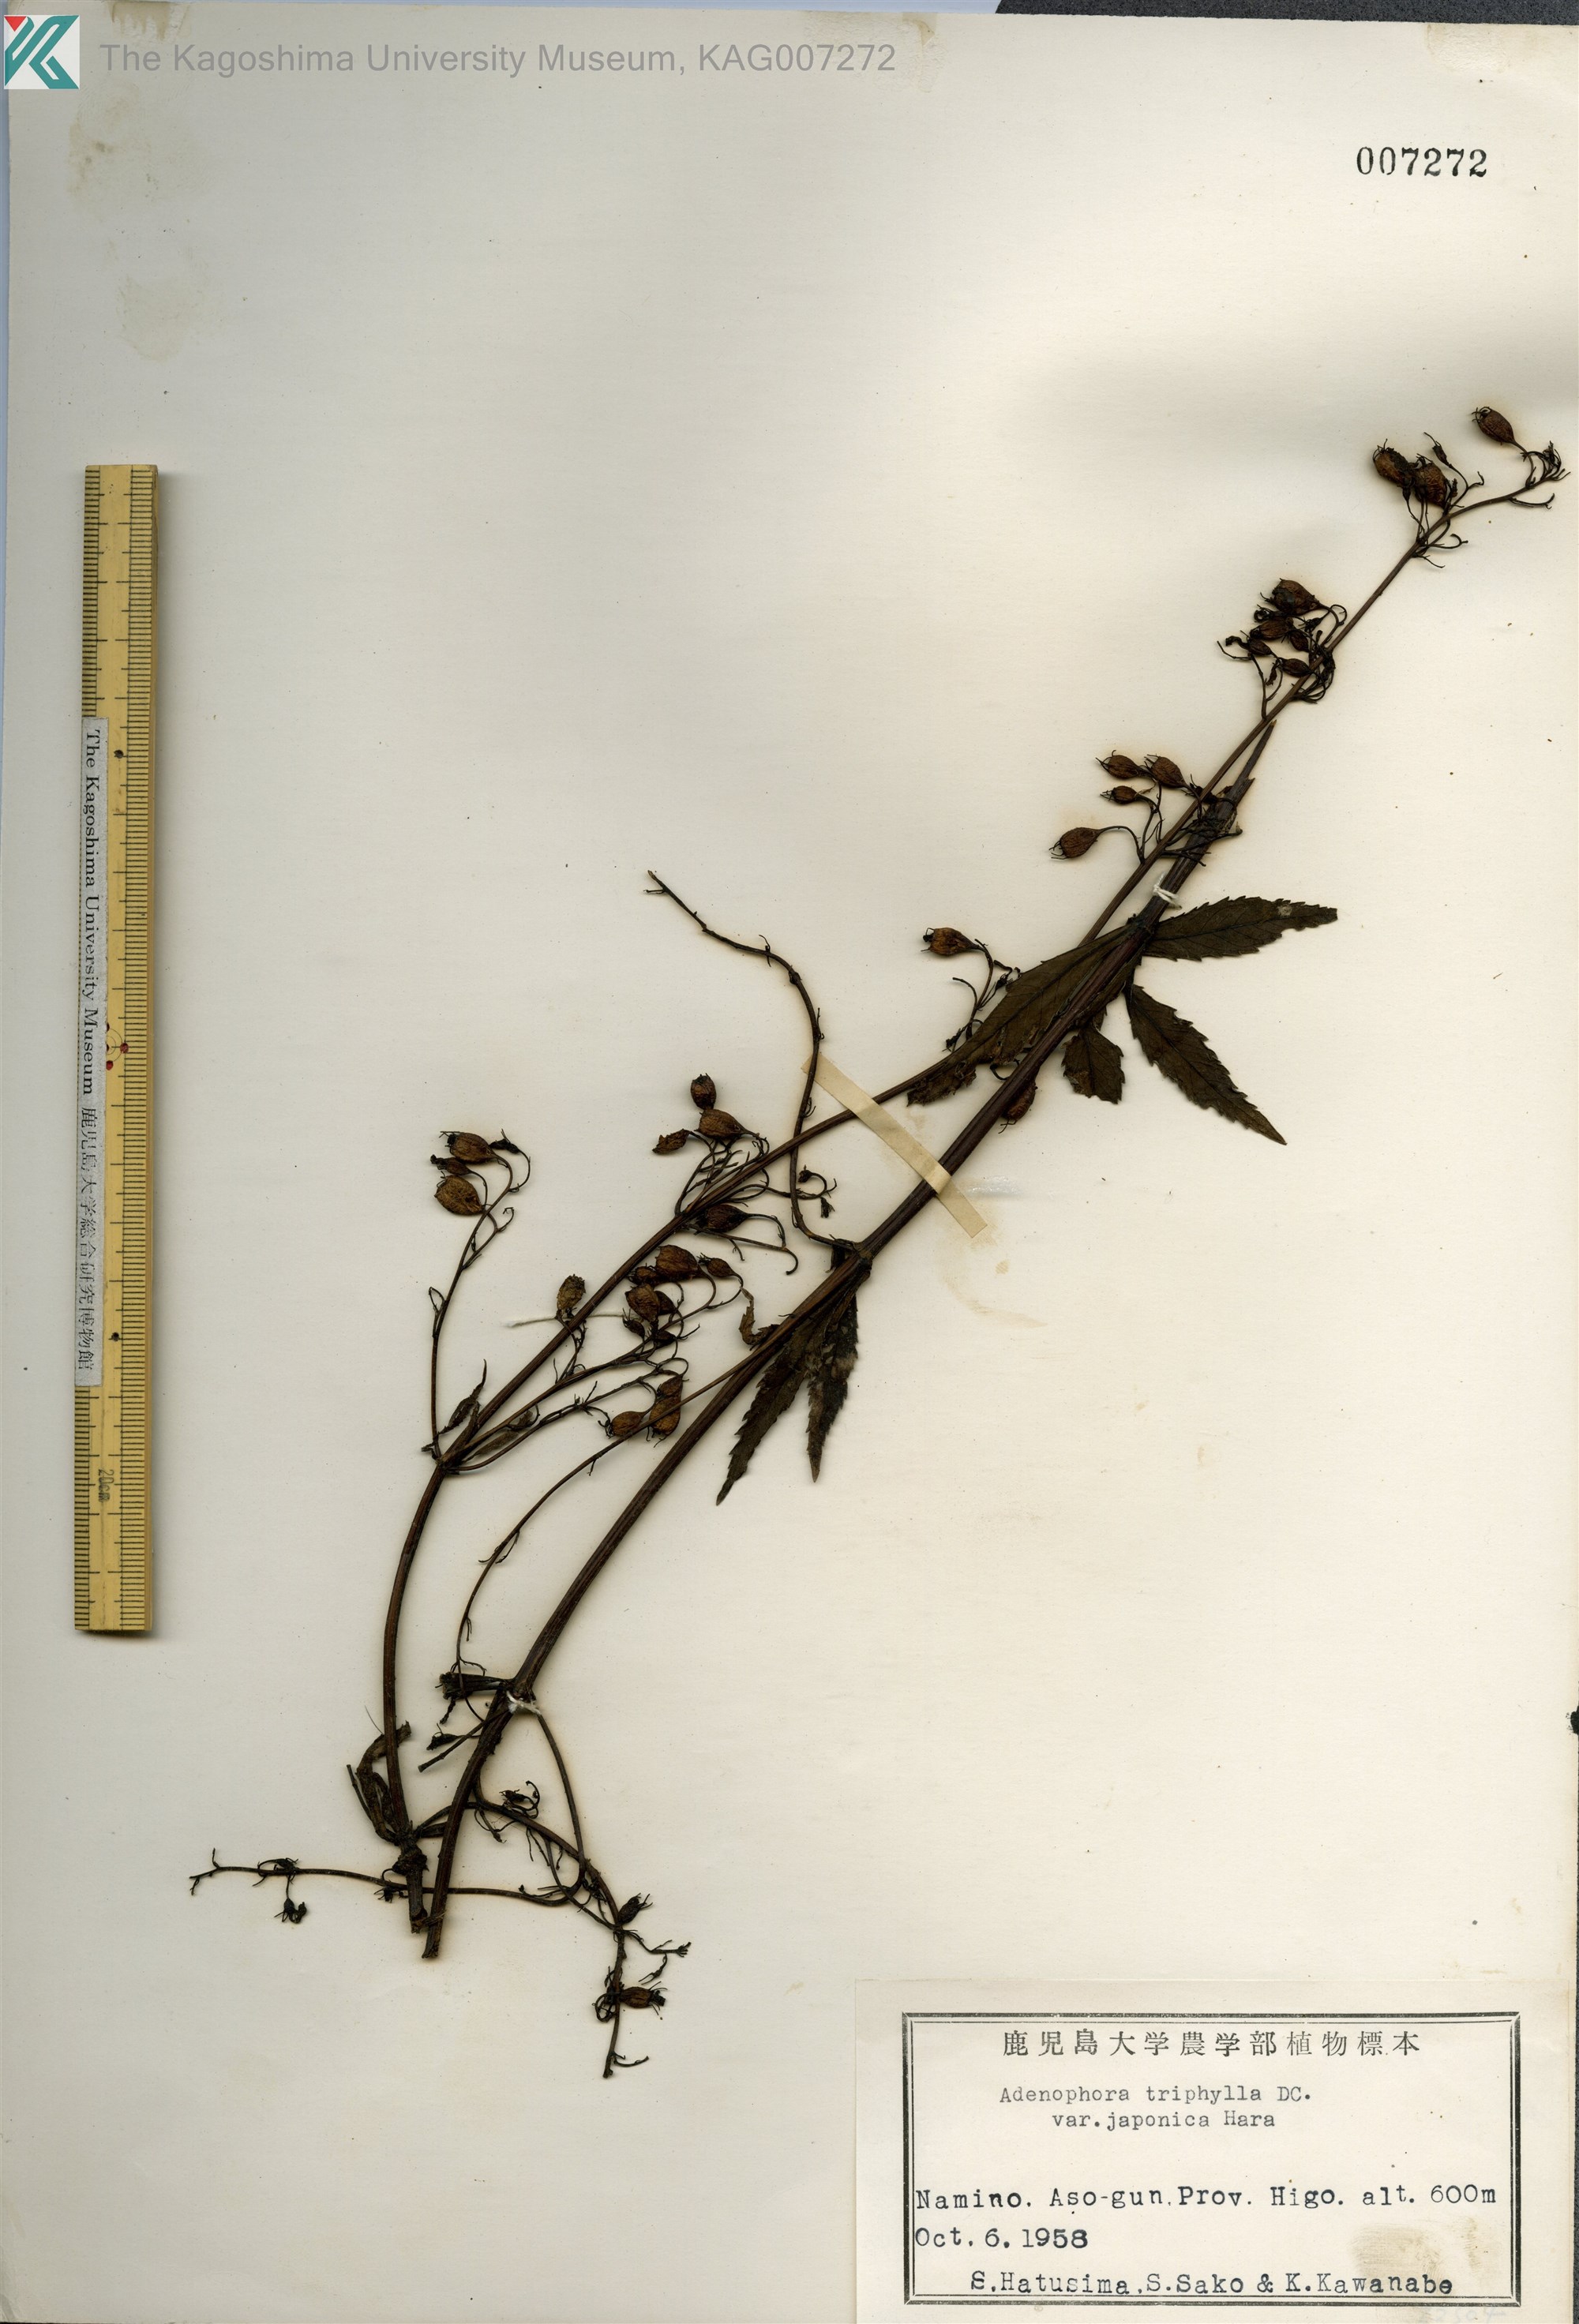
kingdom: Plantae
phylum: Tracheophyta
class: Magnoliopsida
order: Asterales
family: Campanulaceae
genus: Adenophora
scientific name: Adenophora triphylla
